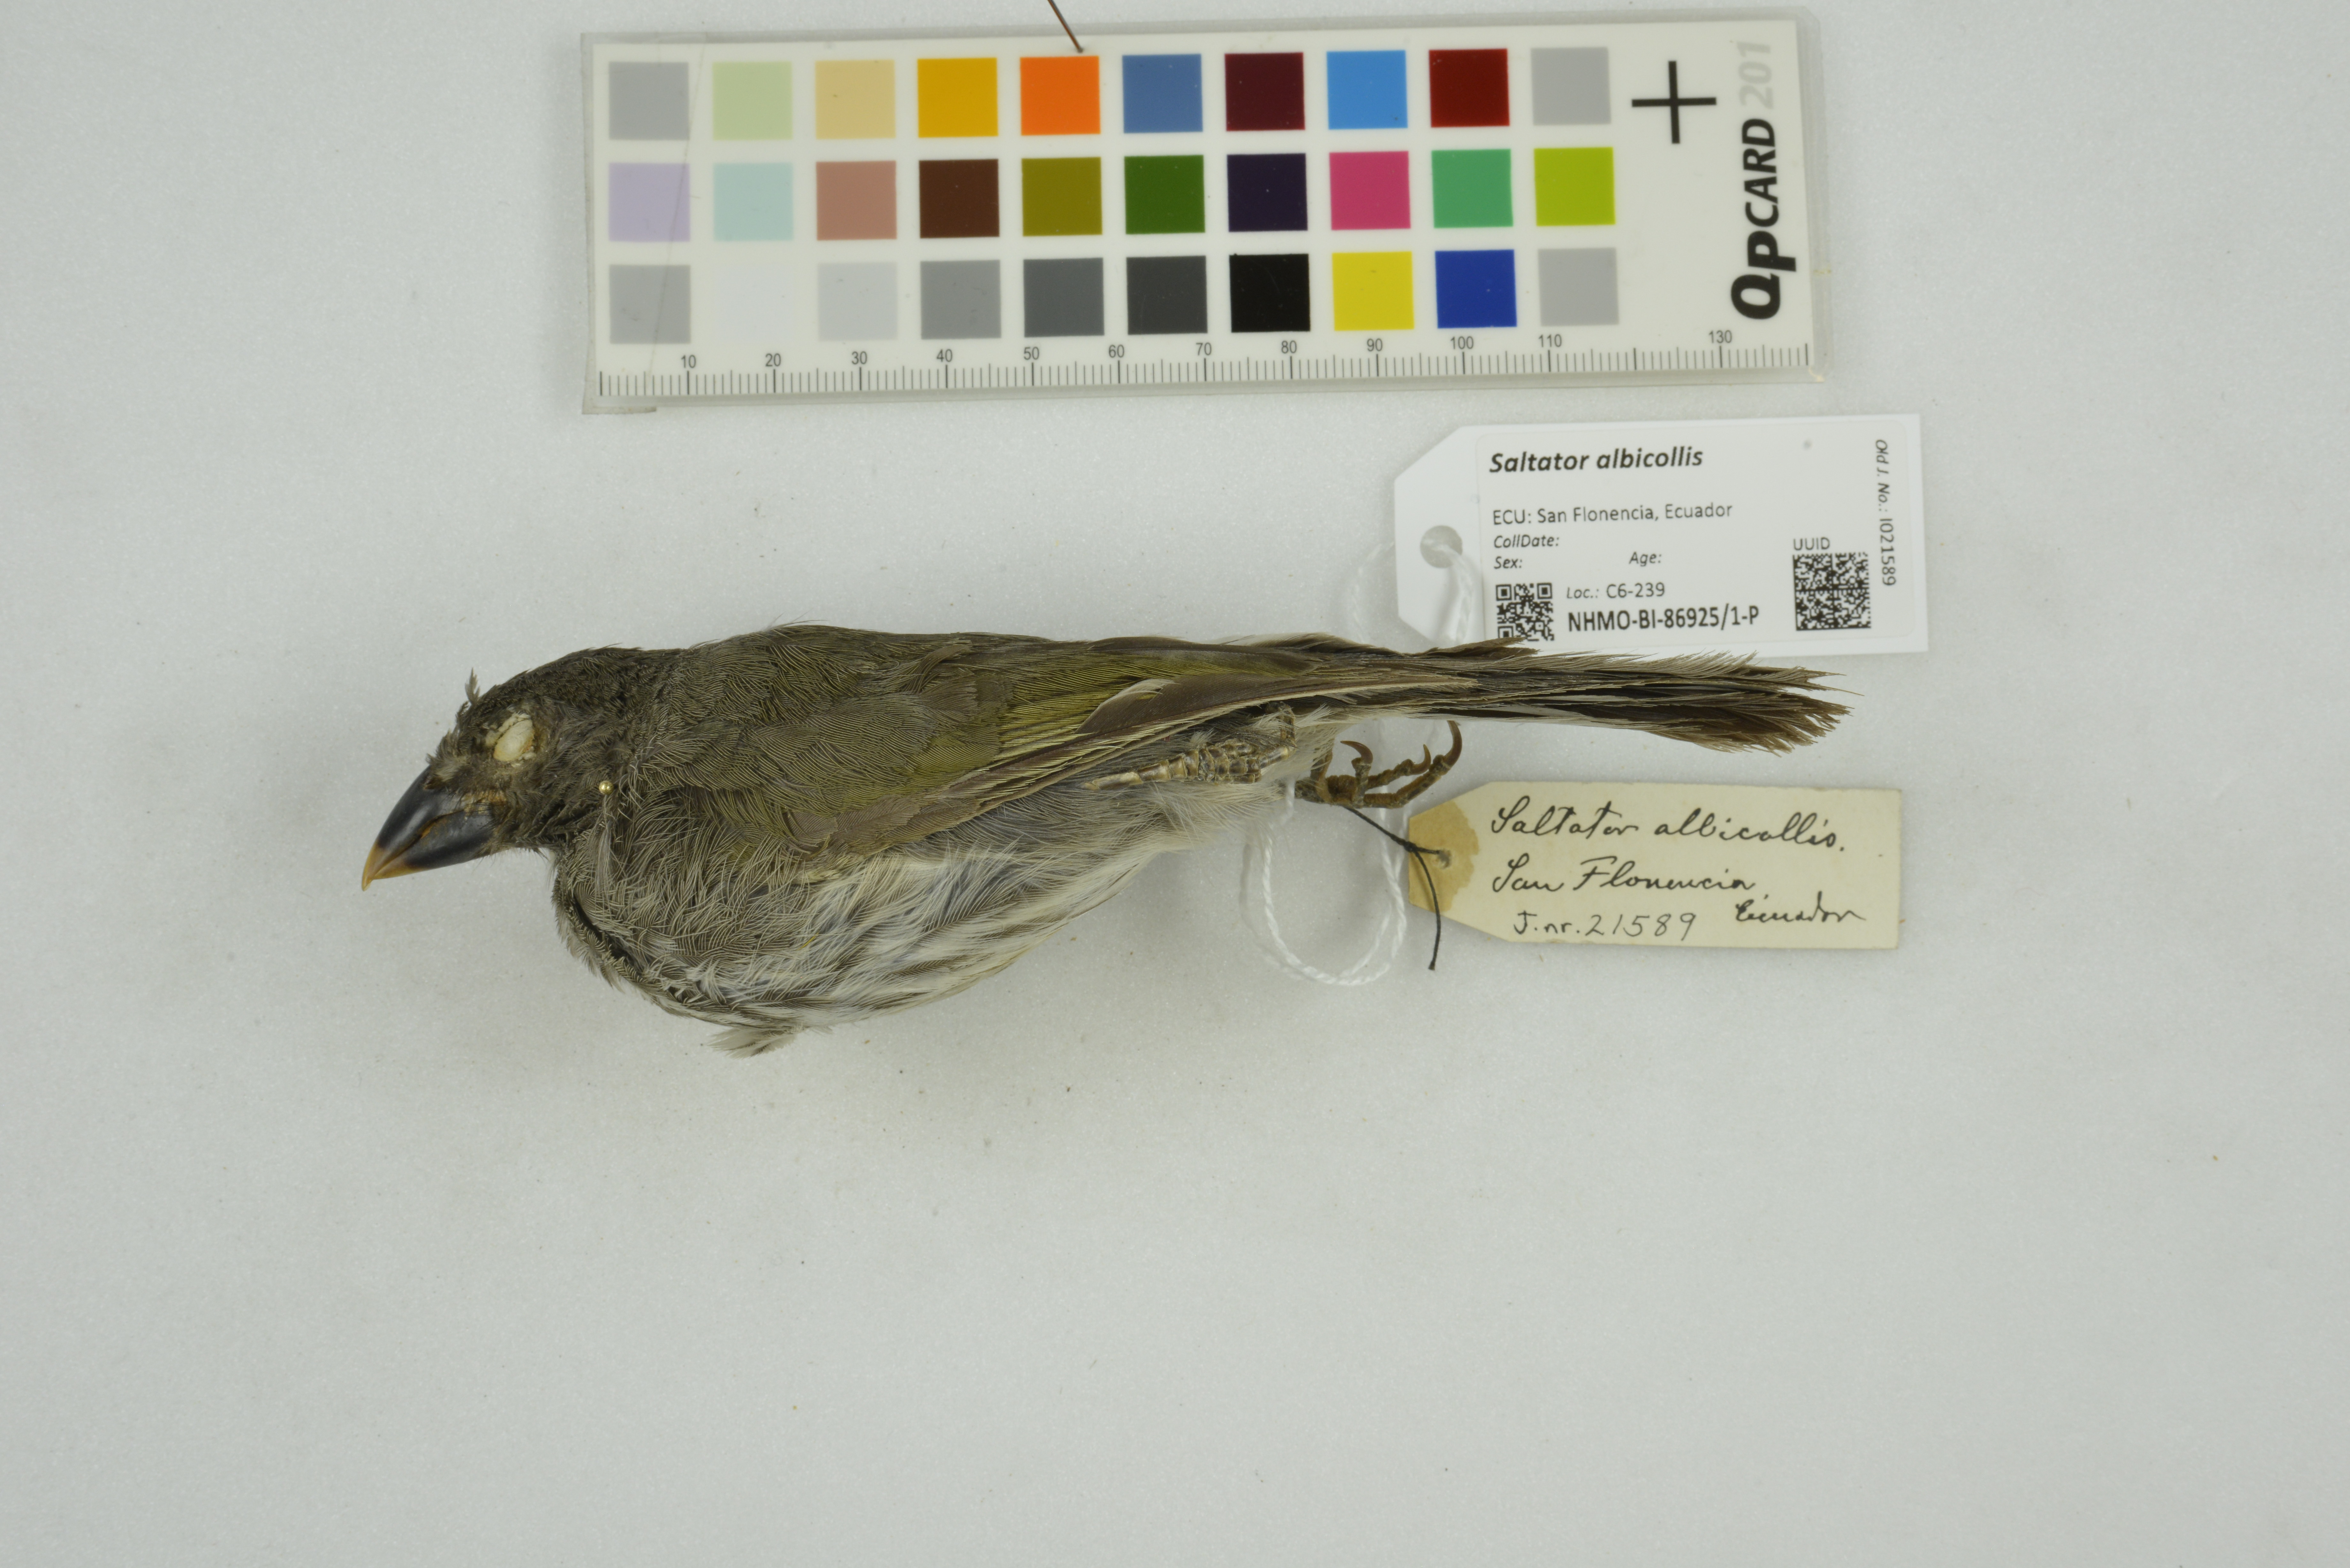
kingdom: Animalia
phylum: Chordata
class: Aves
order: Passeriformes
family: Thraupidae
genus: Saltator
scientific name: Saltator albicollis
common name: Lesser antillean saltator
